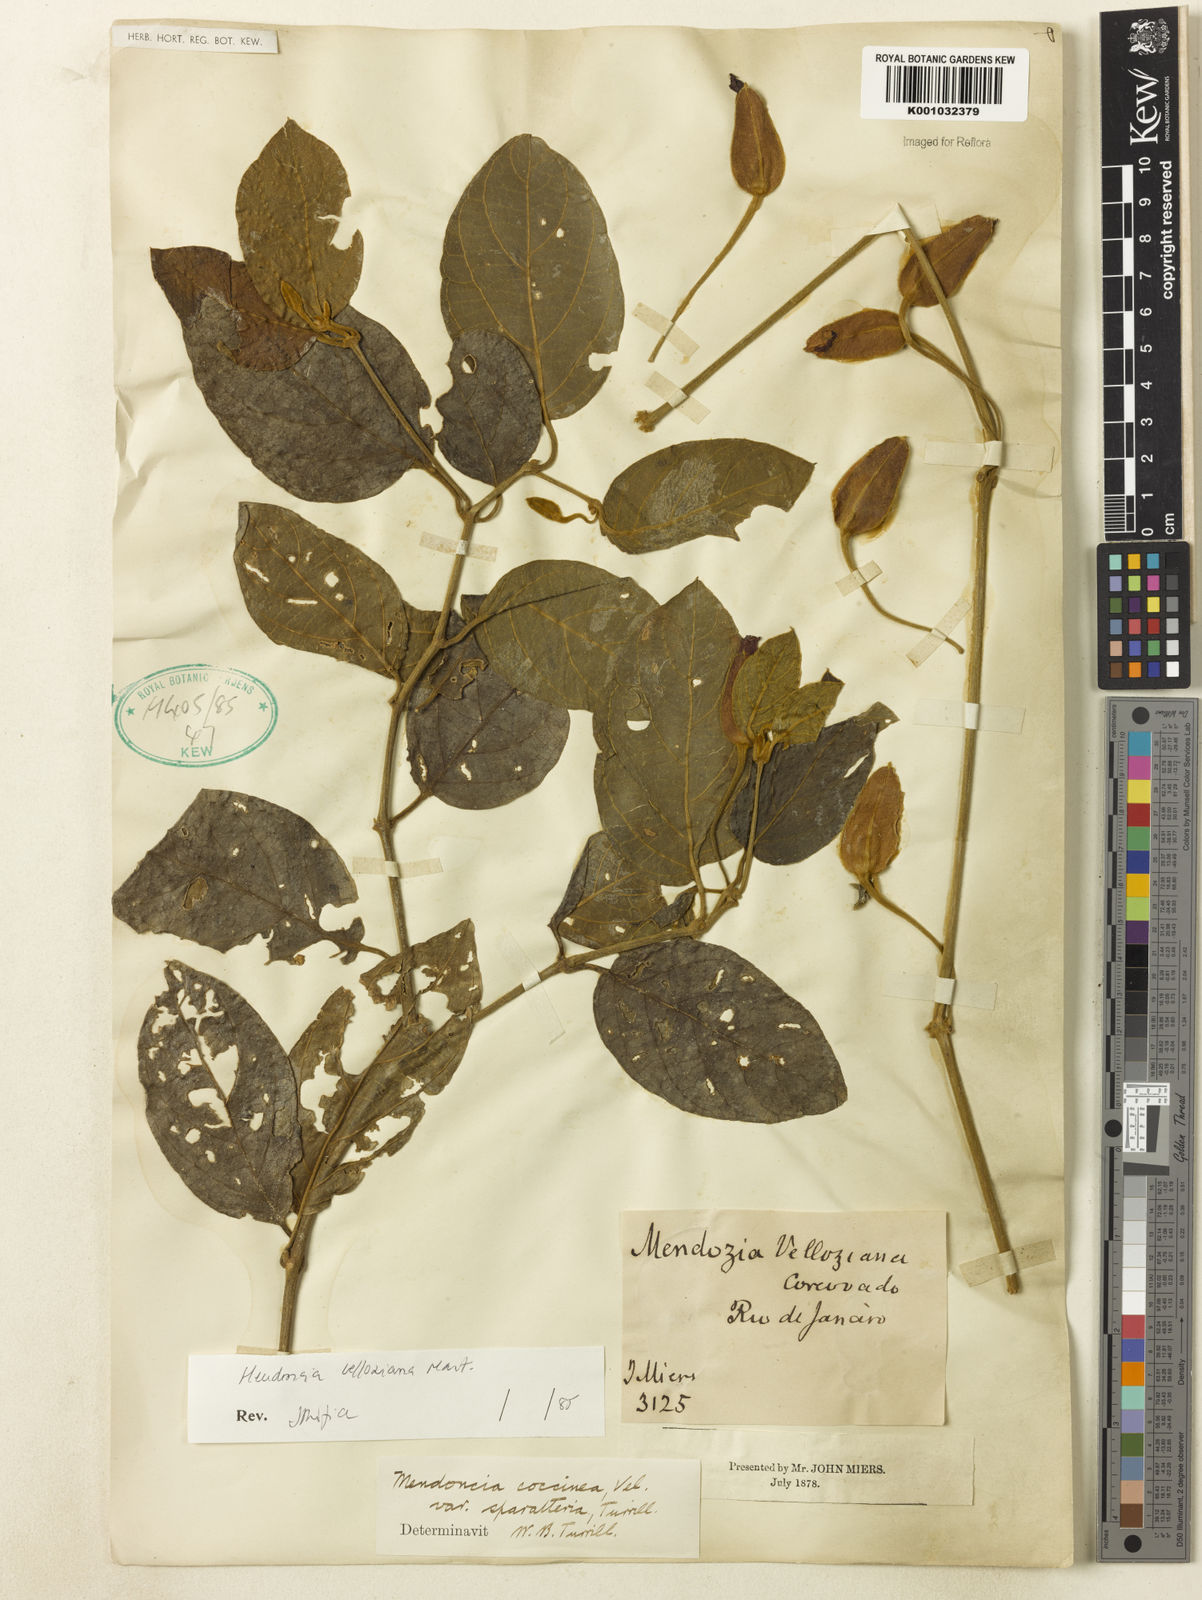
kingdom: Plantae
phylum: Tracheophyta
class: Magnoliopsida
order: Lamiales
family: Acanthaceae
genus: Mendoncia
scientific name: Mendoncia velloziana
